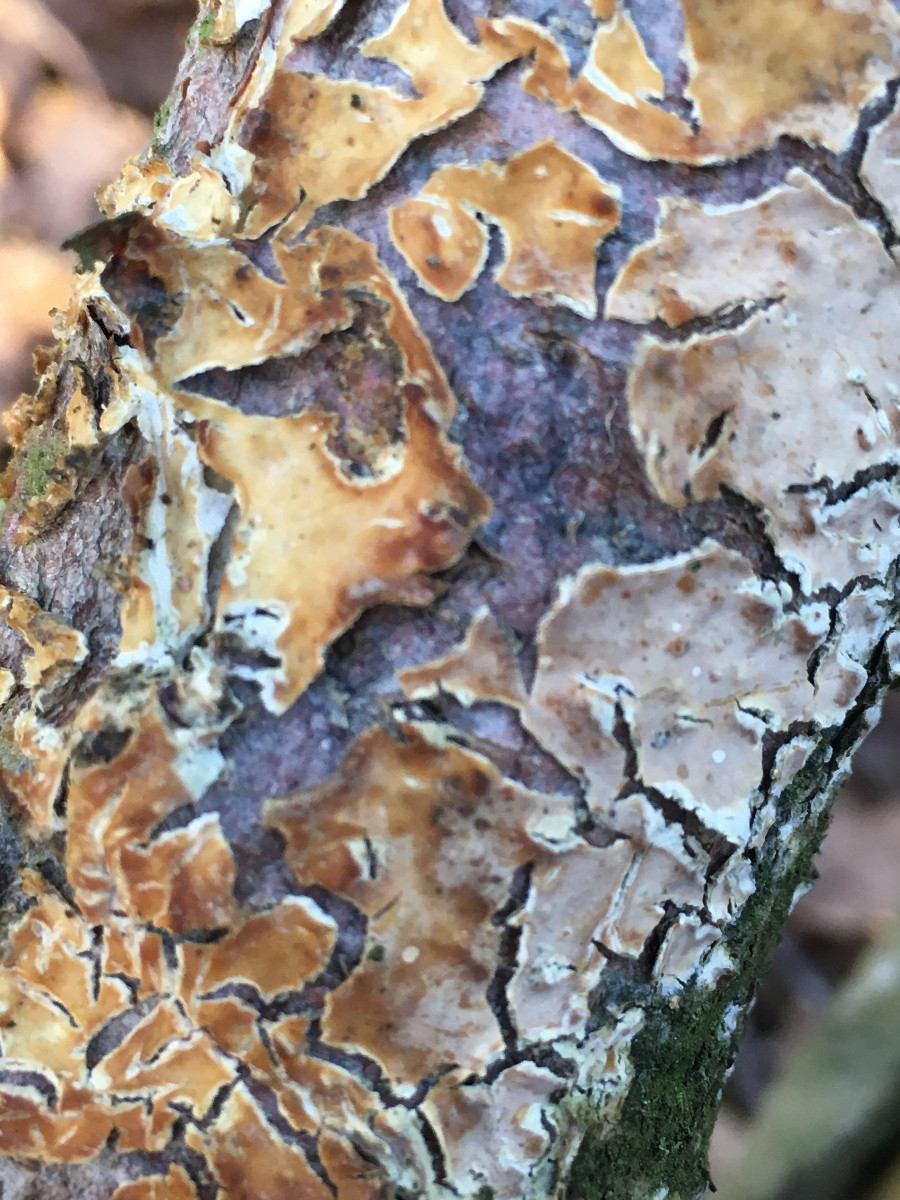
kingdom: Fungi
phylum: Basidiomycota
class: Agaricomycetes
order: Agaricales
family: Physalacriaceae
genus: Cylindrobasidium
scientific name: Cylindrobasidium evolvens
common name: sprækkehinde
